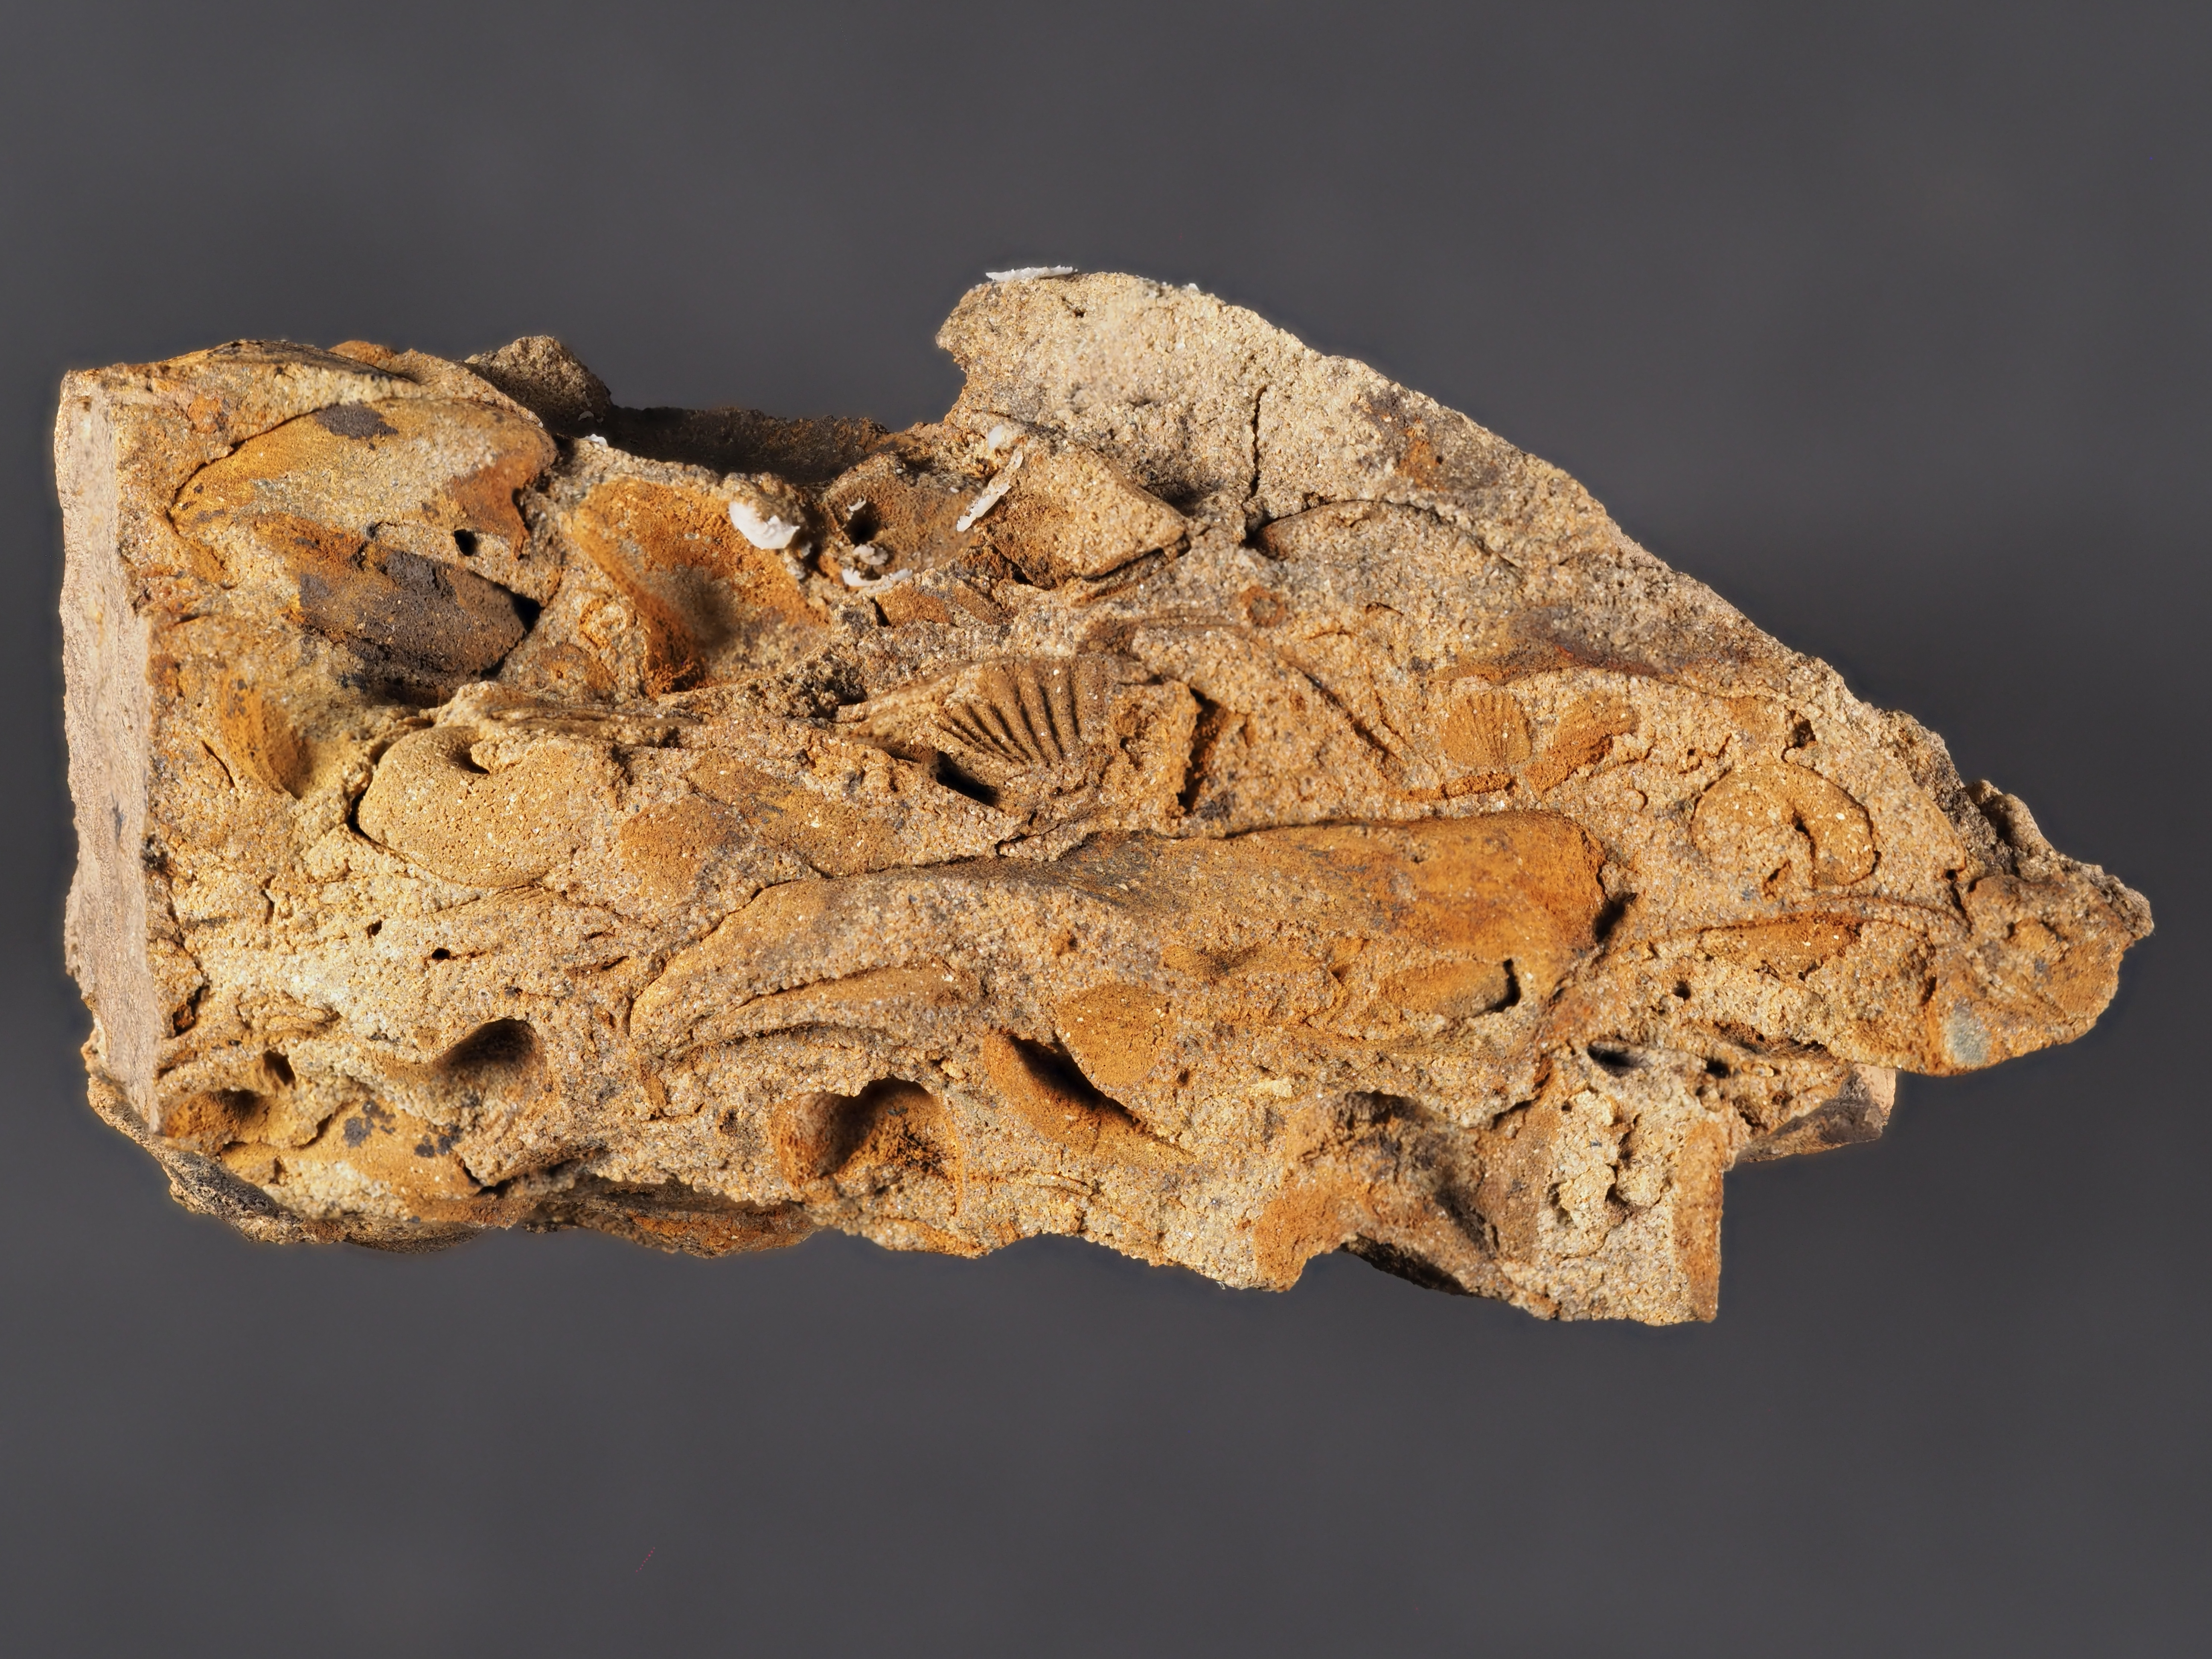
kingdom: Animalia
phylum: Mollusca
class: Gastropoda
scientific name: Gastropoda
